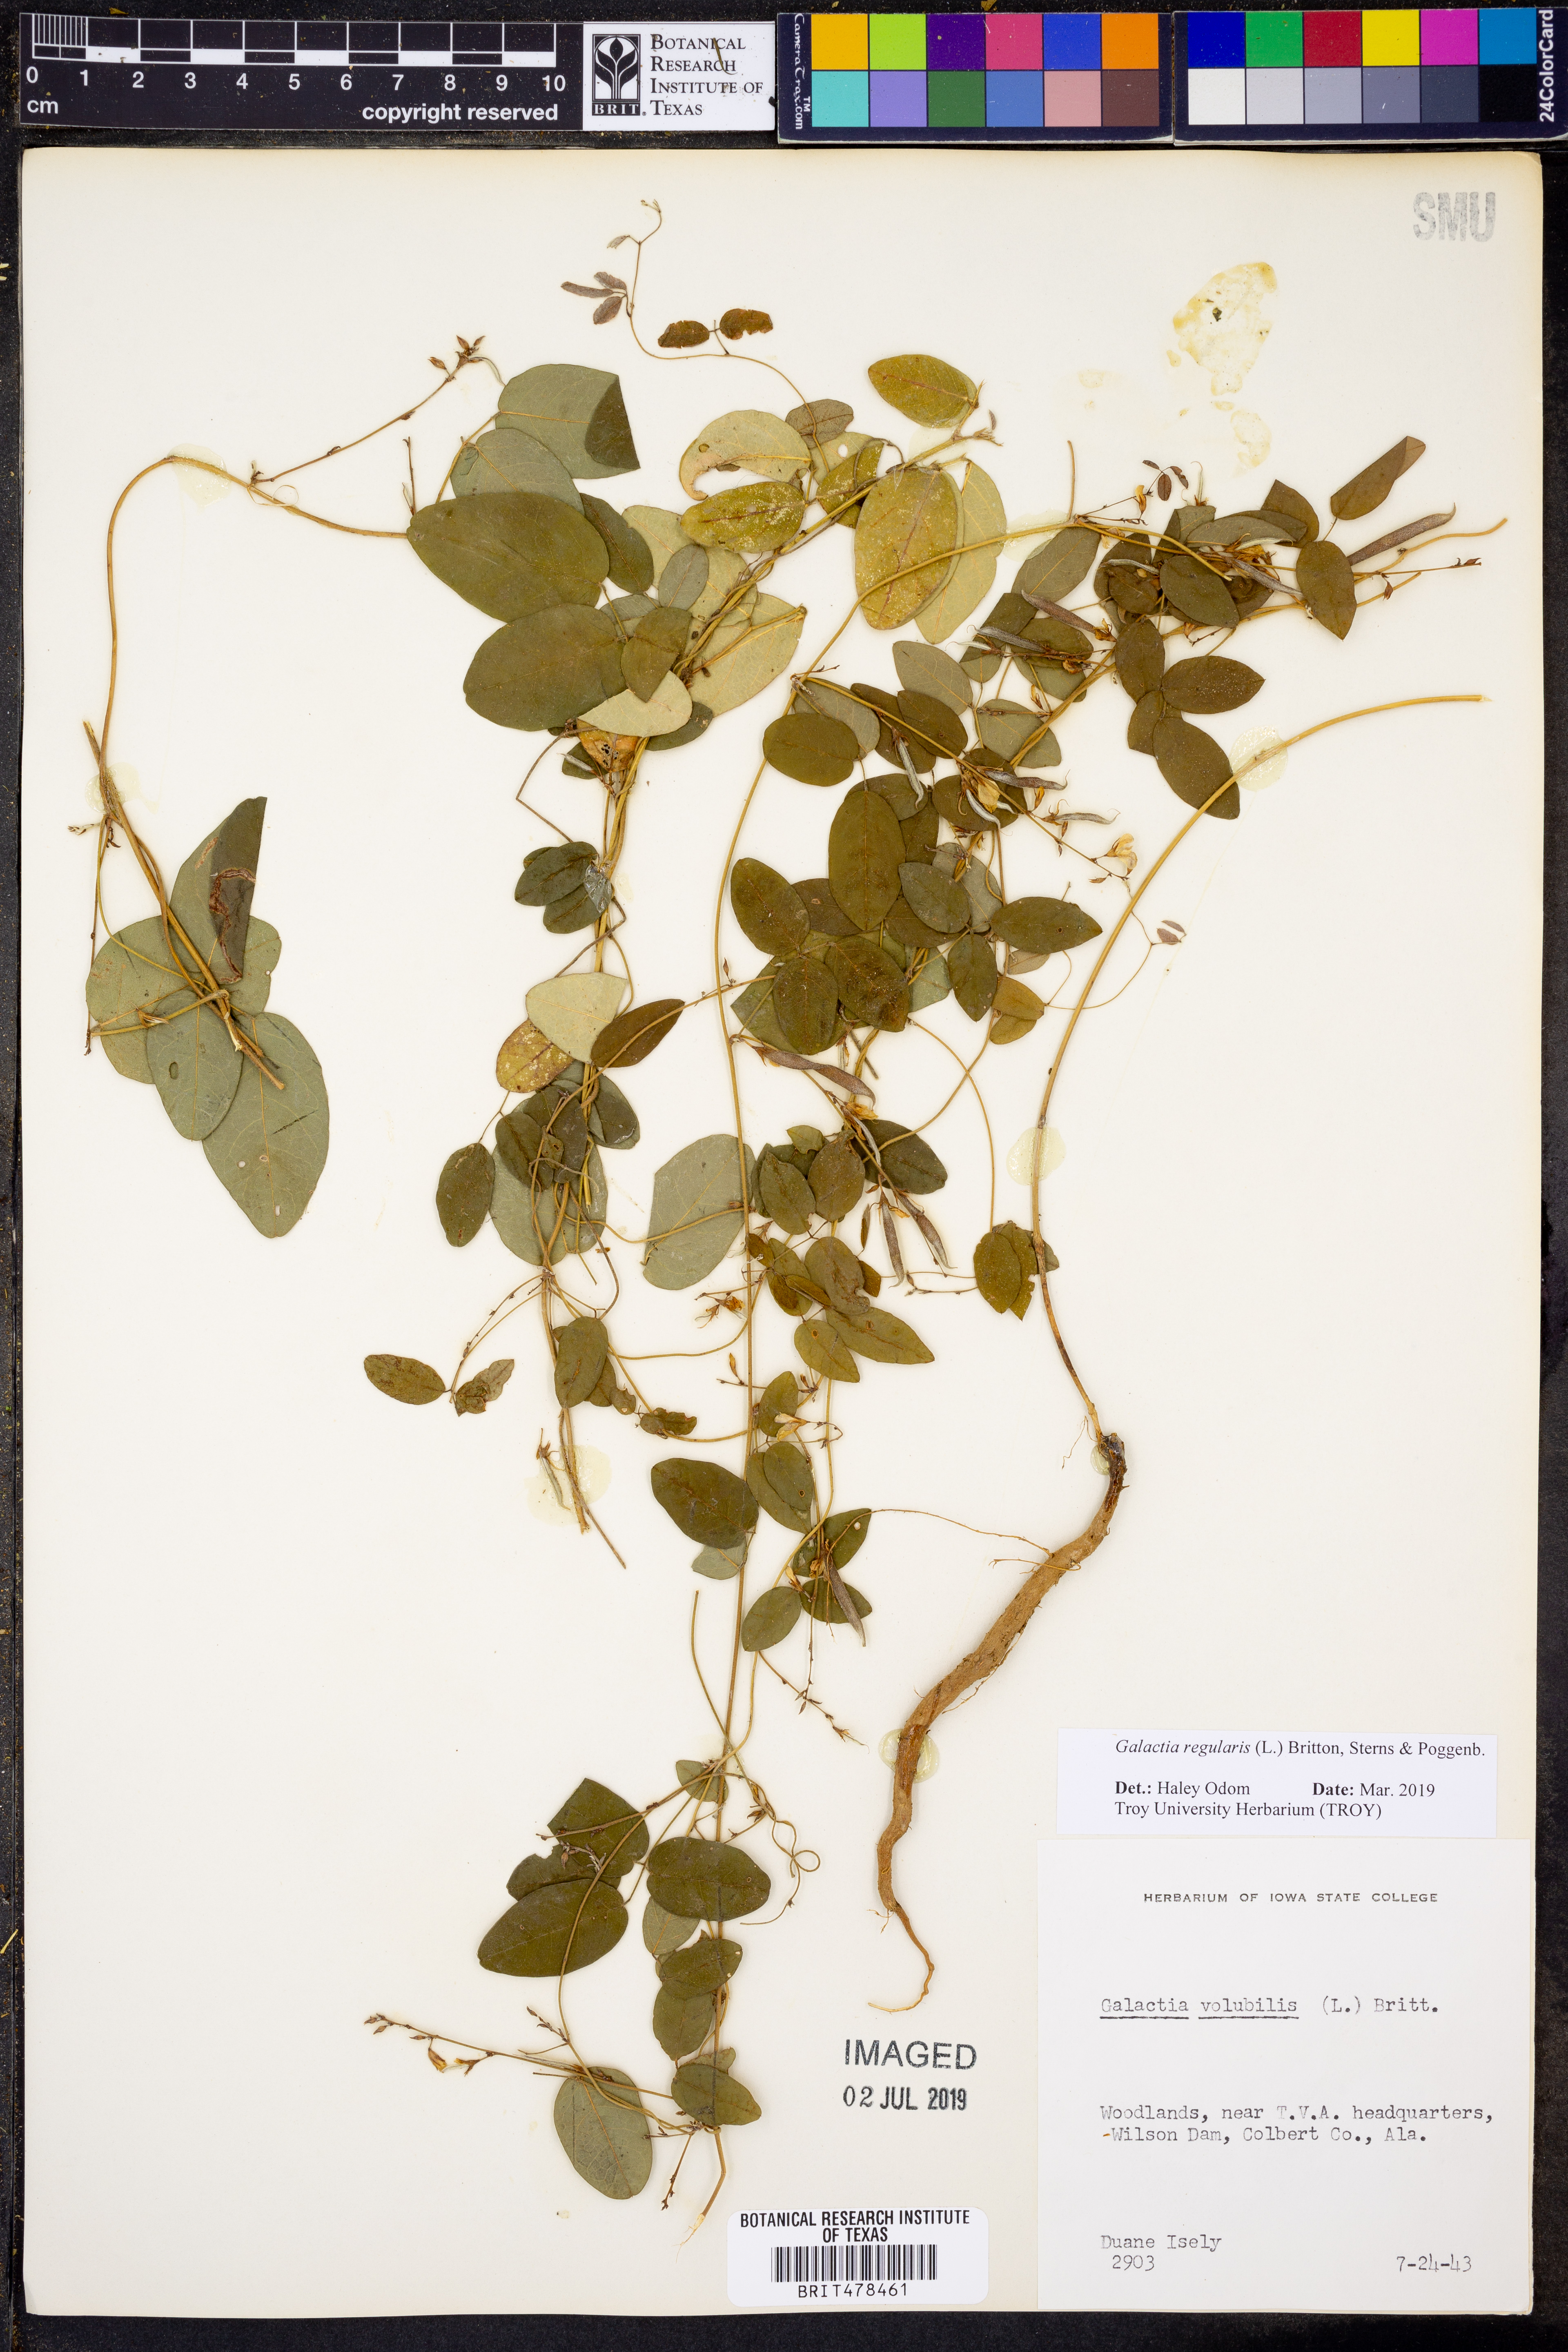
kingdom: Plantae
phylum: Tracheophyta
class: Magnoliopsida
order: Fabales
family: Fabaceae
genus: Galactia
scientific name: Galactia regularis
